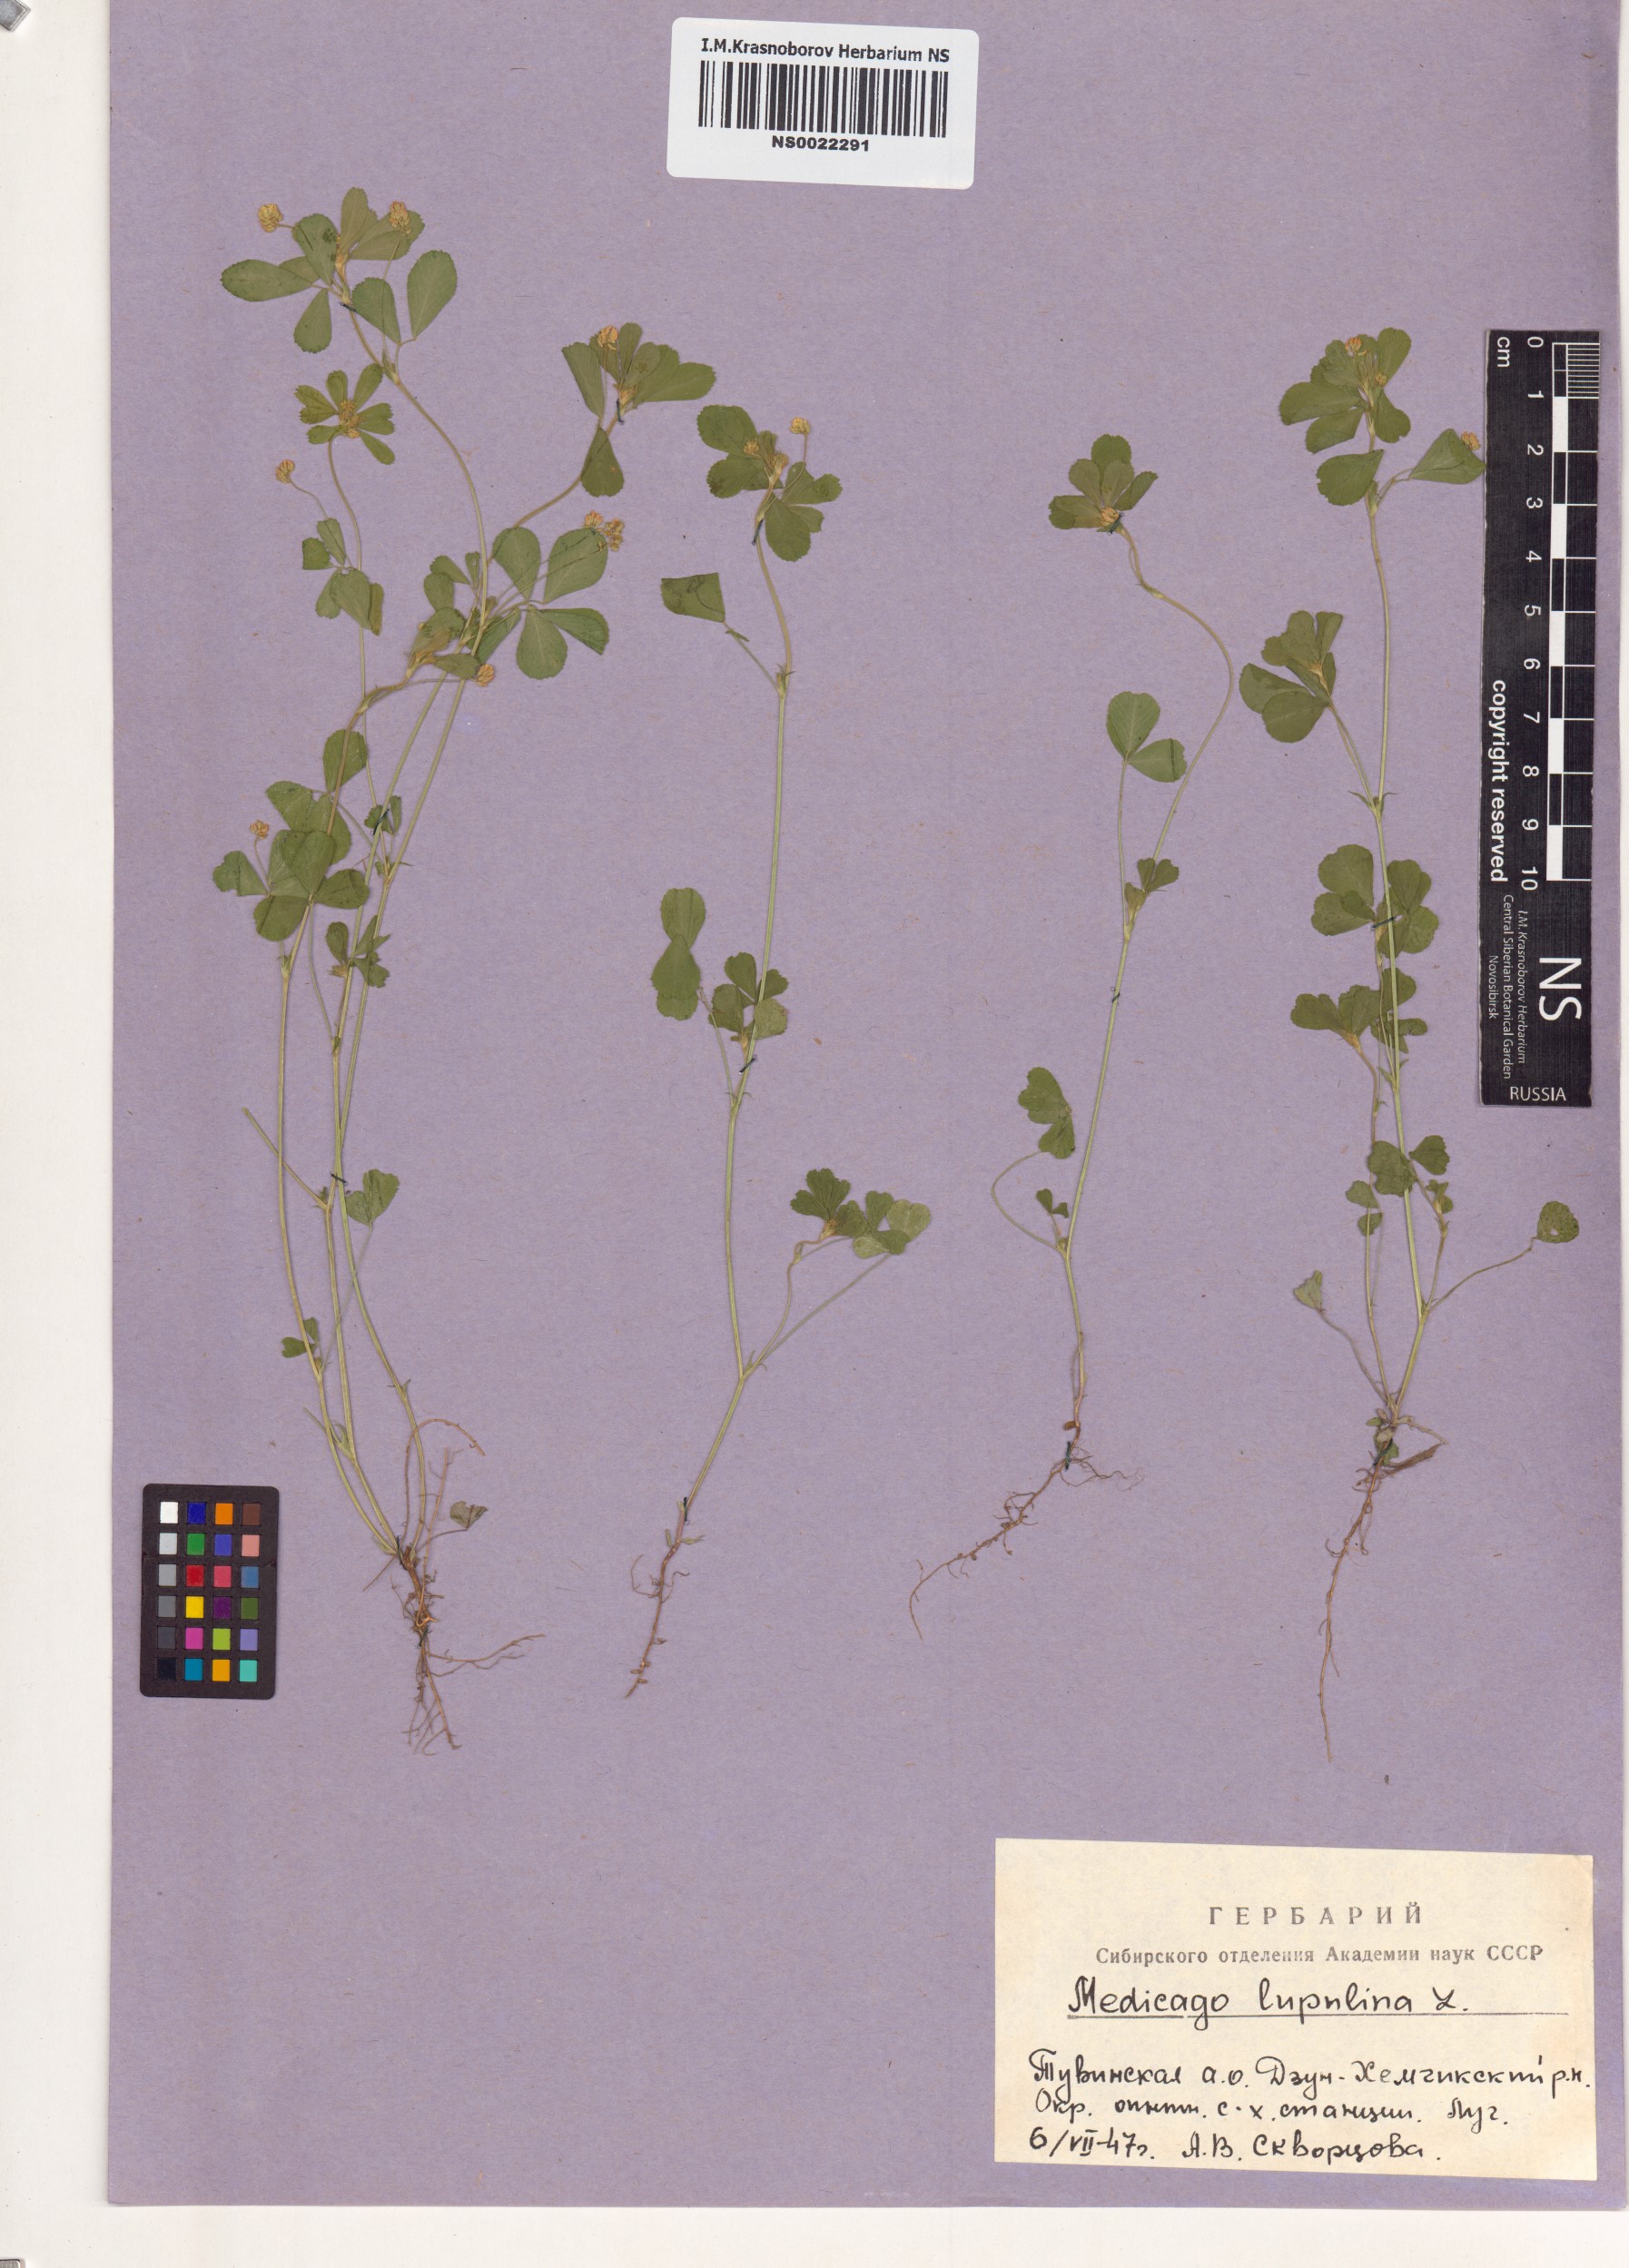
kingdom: Plantae
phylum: Tracheophyta
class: Magnoliopsida
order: Fabales
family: Fabaceae
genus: Medicago
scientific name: Medicago lupulina
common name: Black medick
